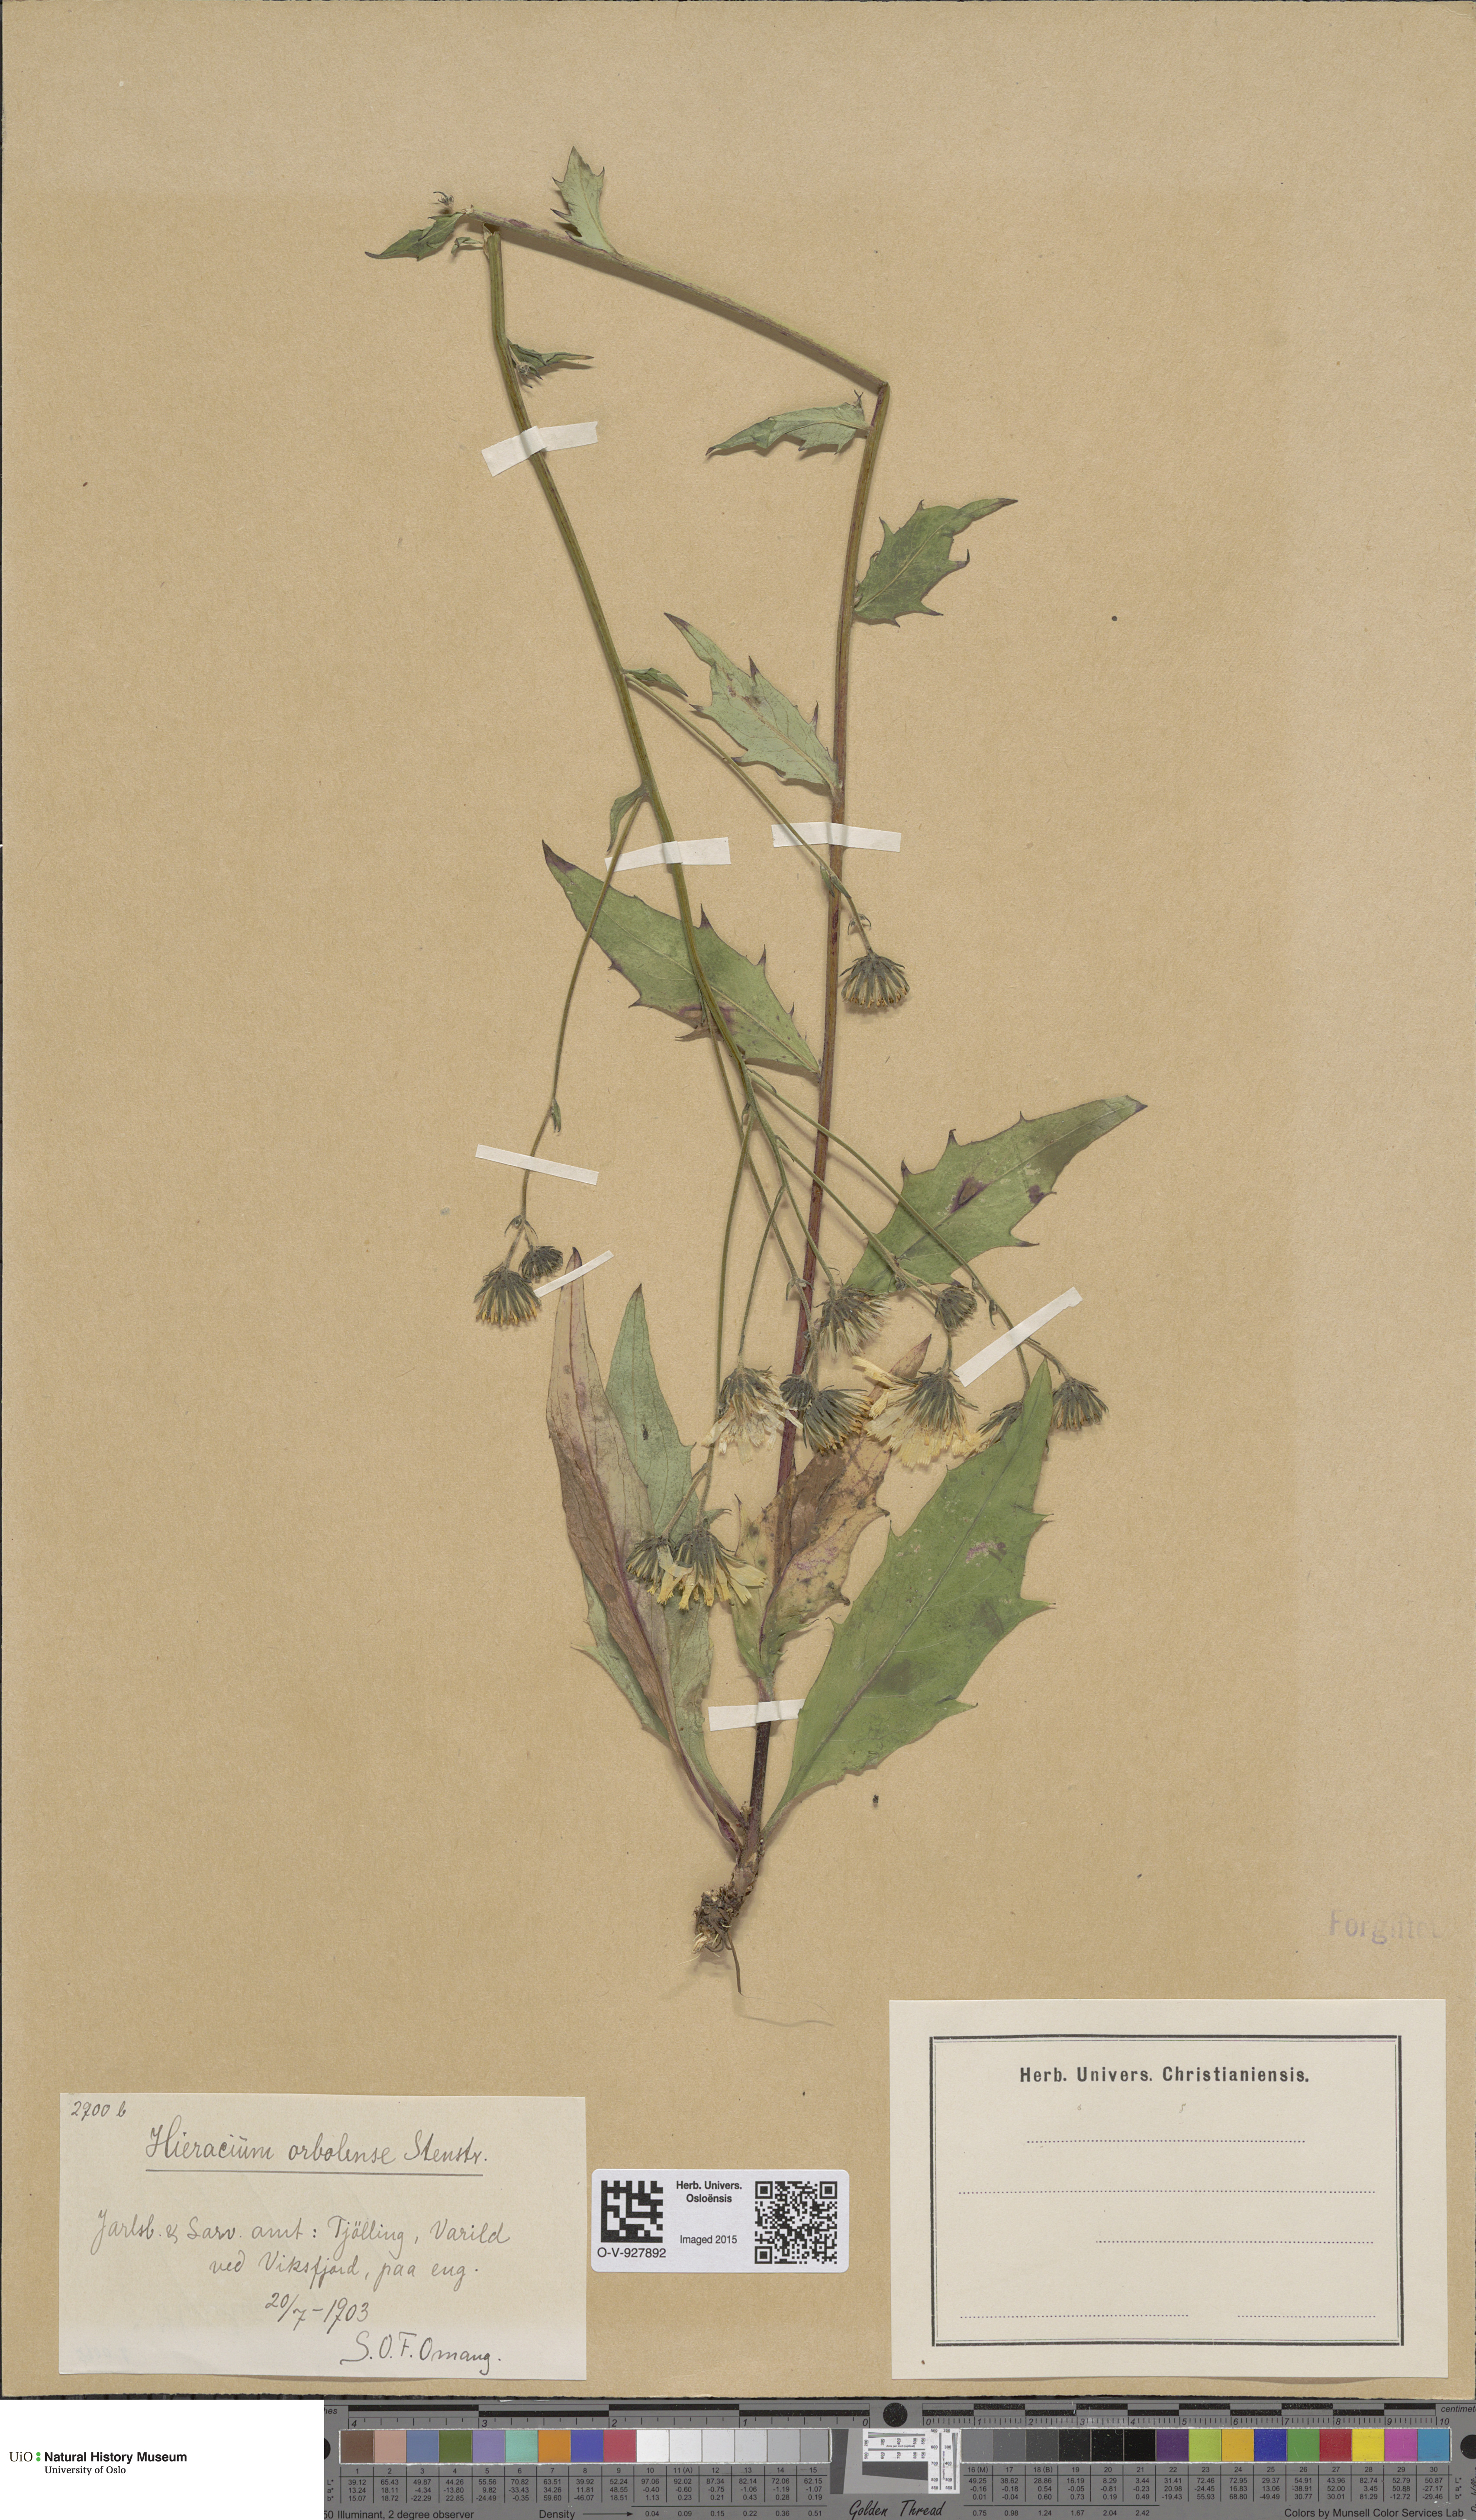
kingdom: Plantae
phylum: Tracheophyta
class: Magnoliopsida
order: Asterales
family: Asteraceae
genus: Hieracium
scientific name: Hieracium orbolense
